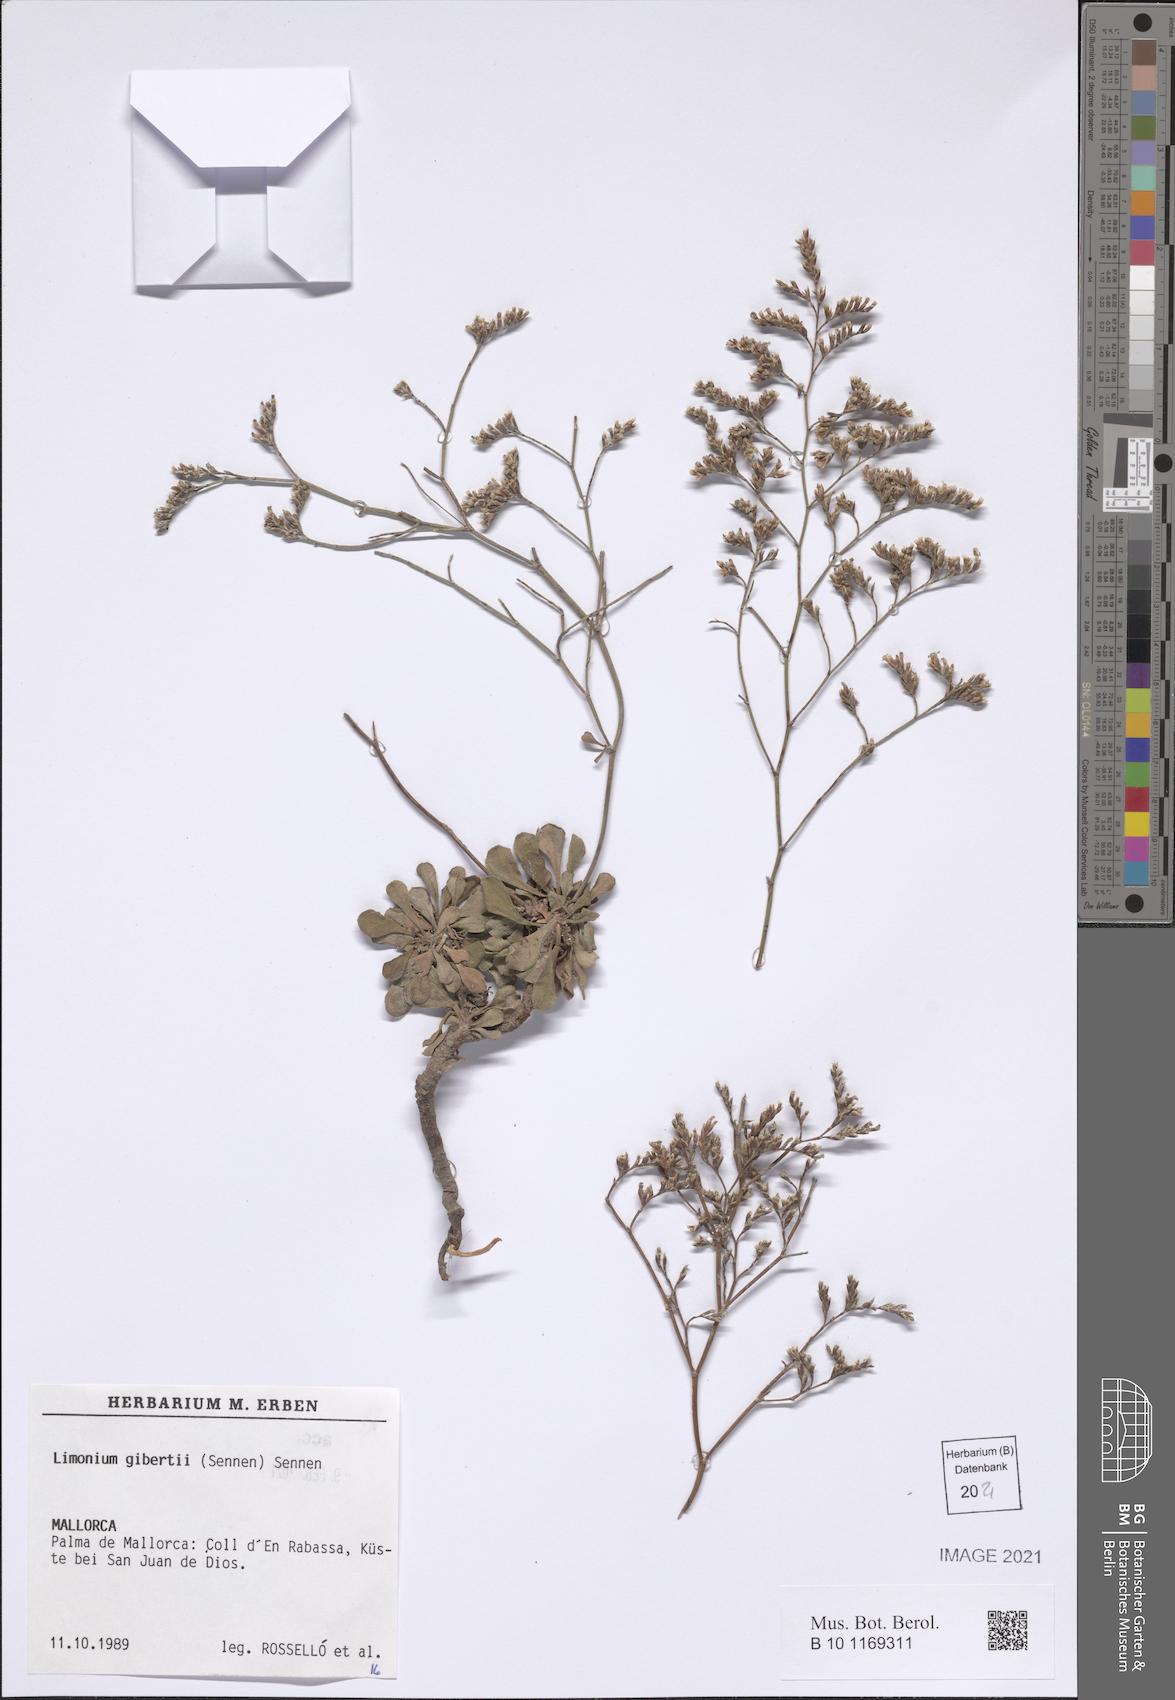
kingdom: Plantae
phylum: Tracheophyta
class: Magnoliopsida
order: Caryophyllales
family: Plumbaginaceae
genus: Limonium
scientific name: Limonium gibertii
